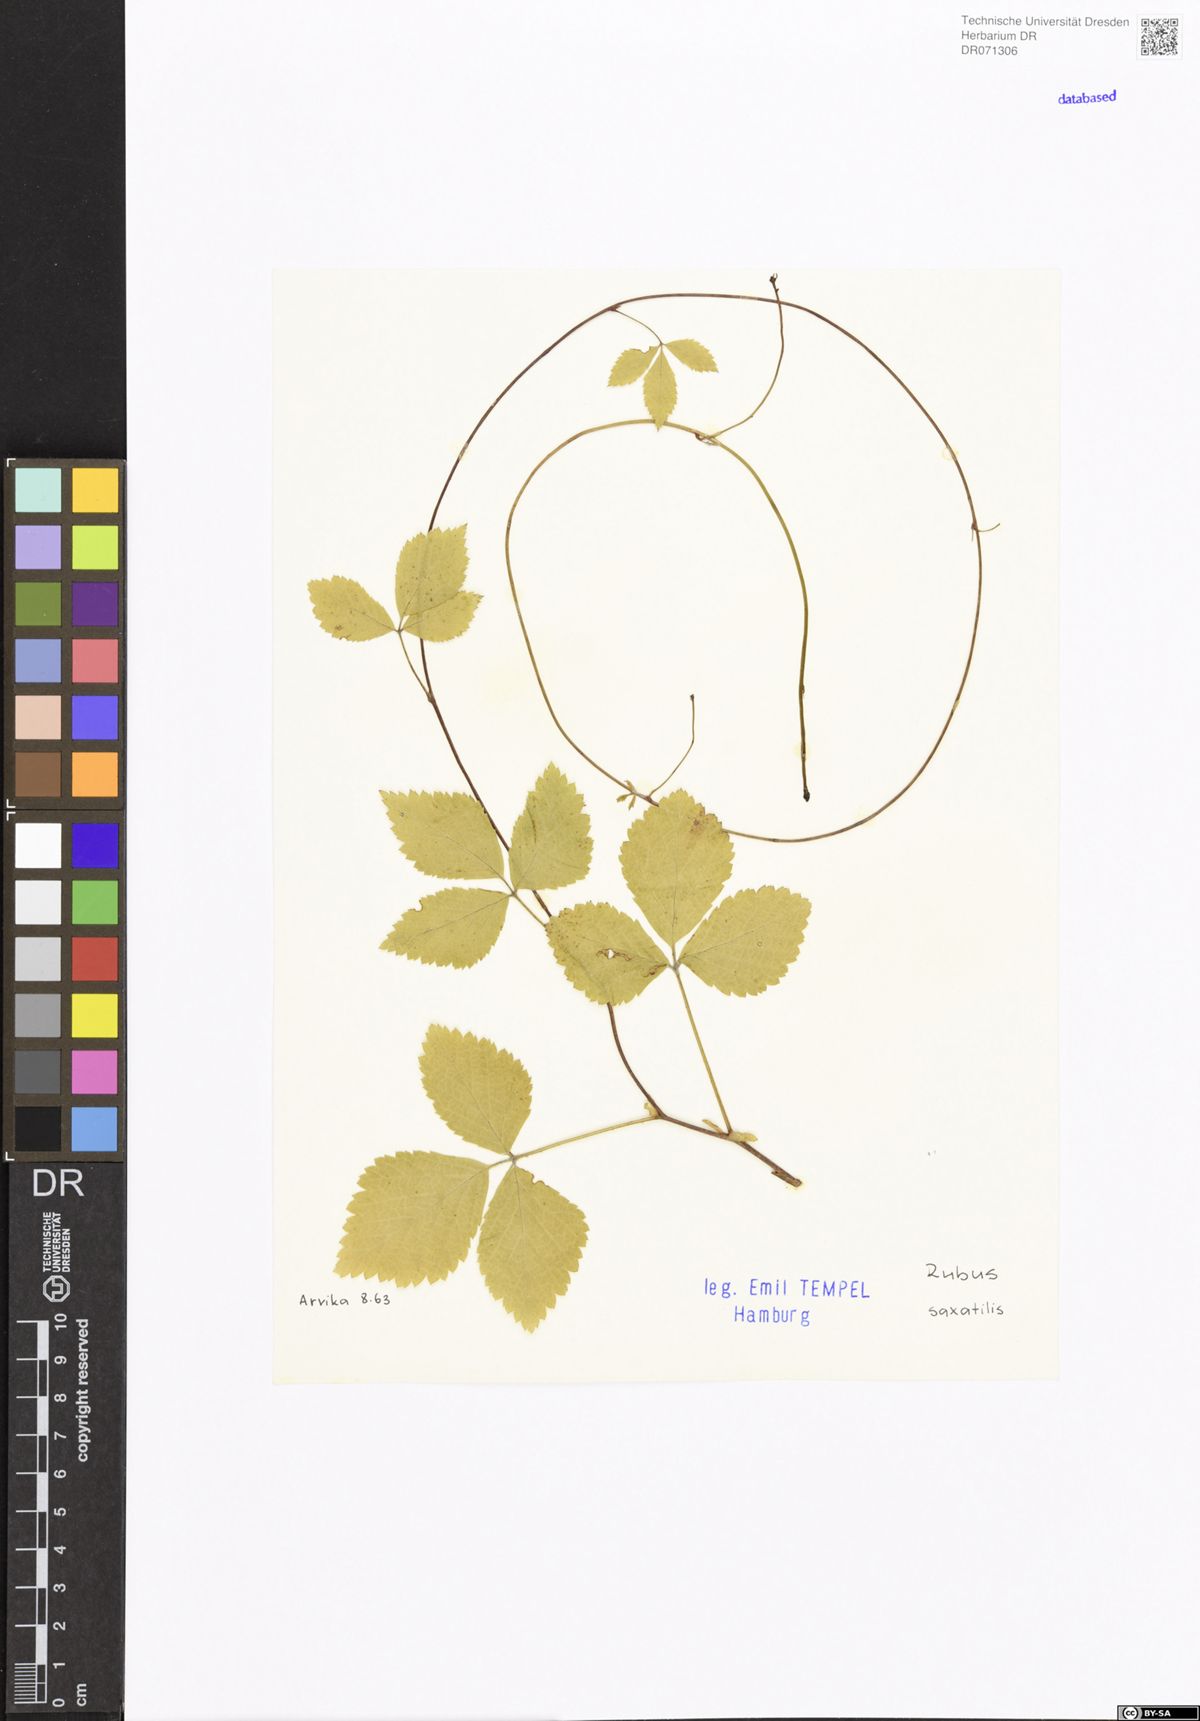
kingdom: Plantae
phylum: Tracheophyta
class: Magnoliopsida
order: Rosales
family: Rosaceae
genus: Rubus
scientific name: Rubus saxatilis
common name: Stone bramble
